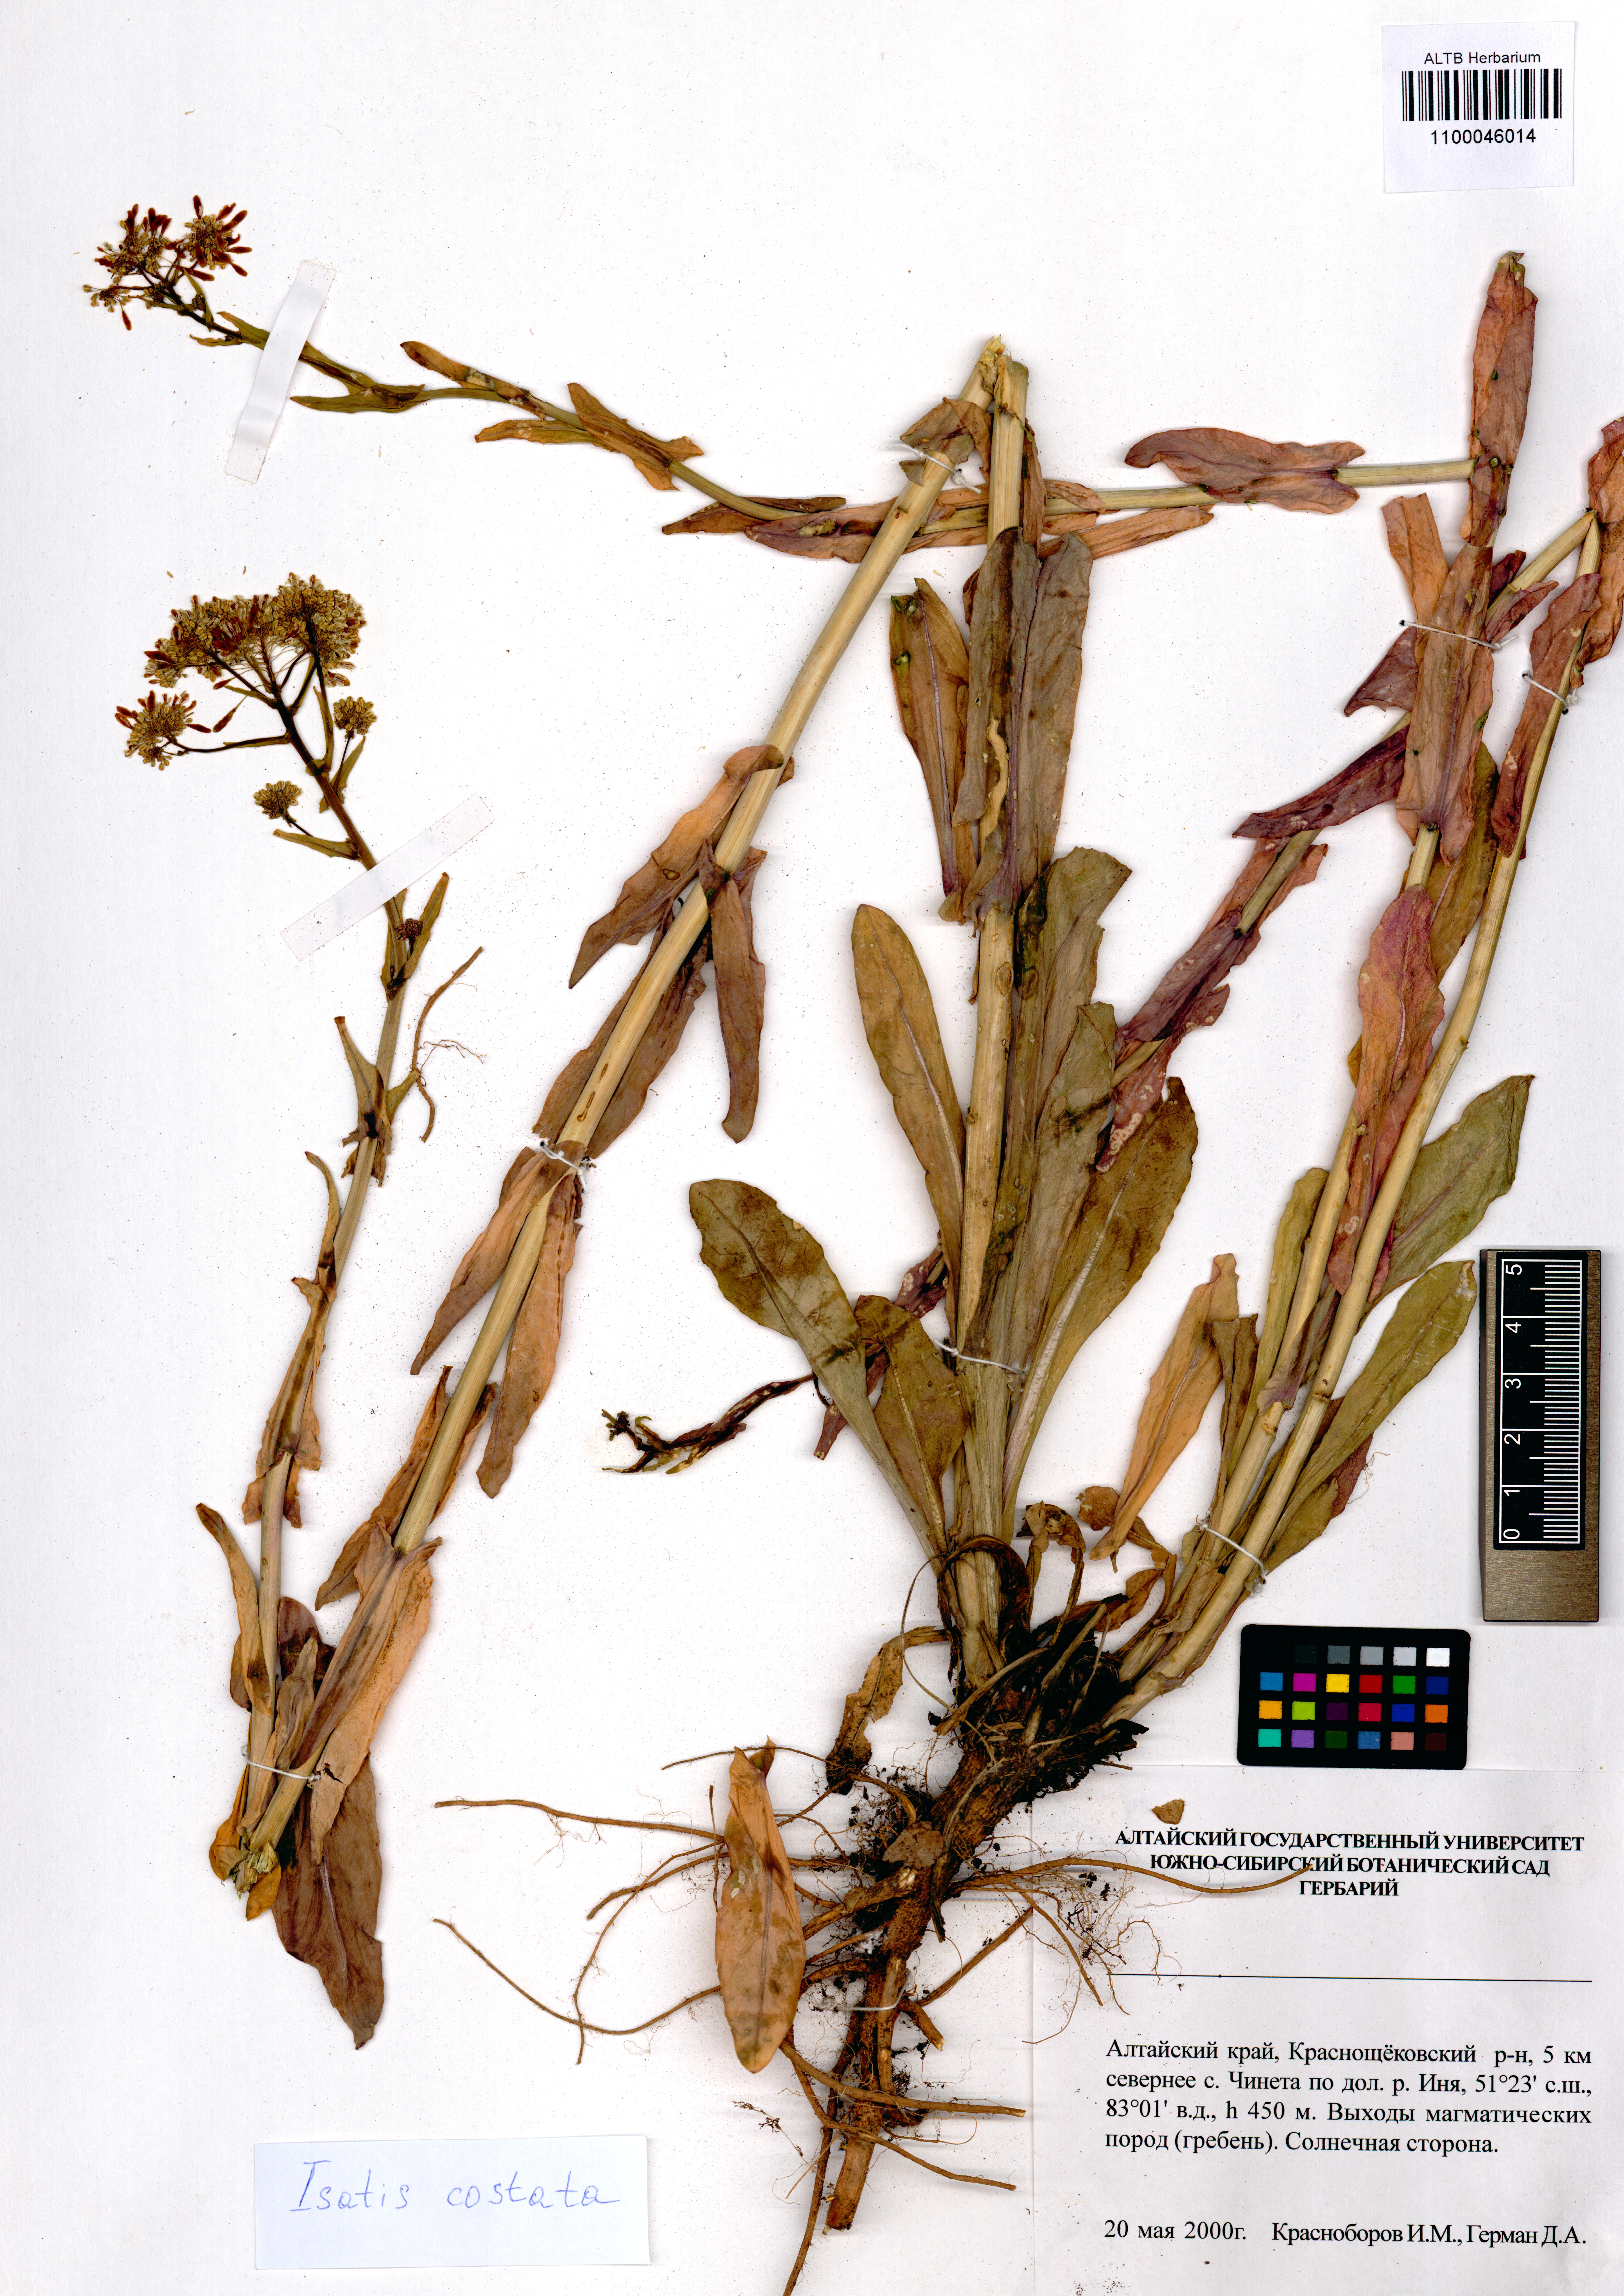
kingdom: Plantae
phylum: Tracheophyta
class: Magnoliopsida
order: Brassicales
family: Brassicaceae
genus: Isatis
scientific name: Isatis costata
